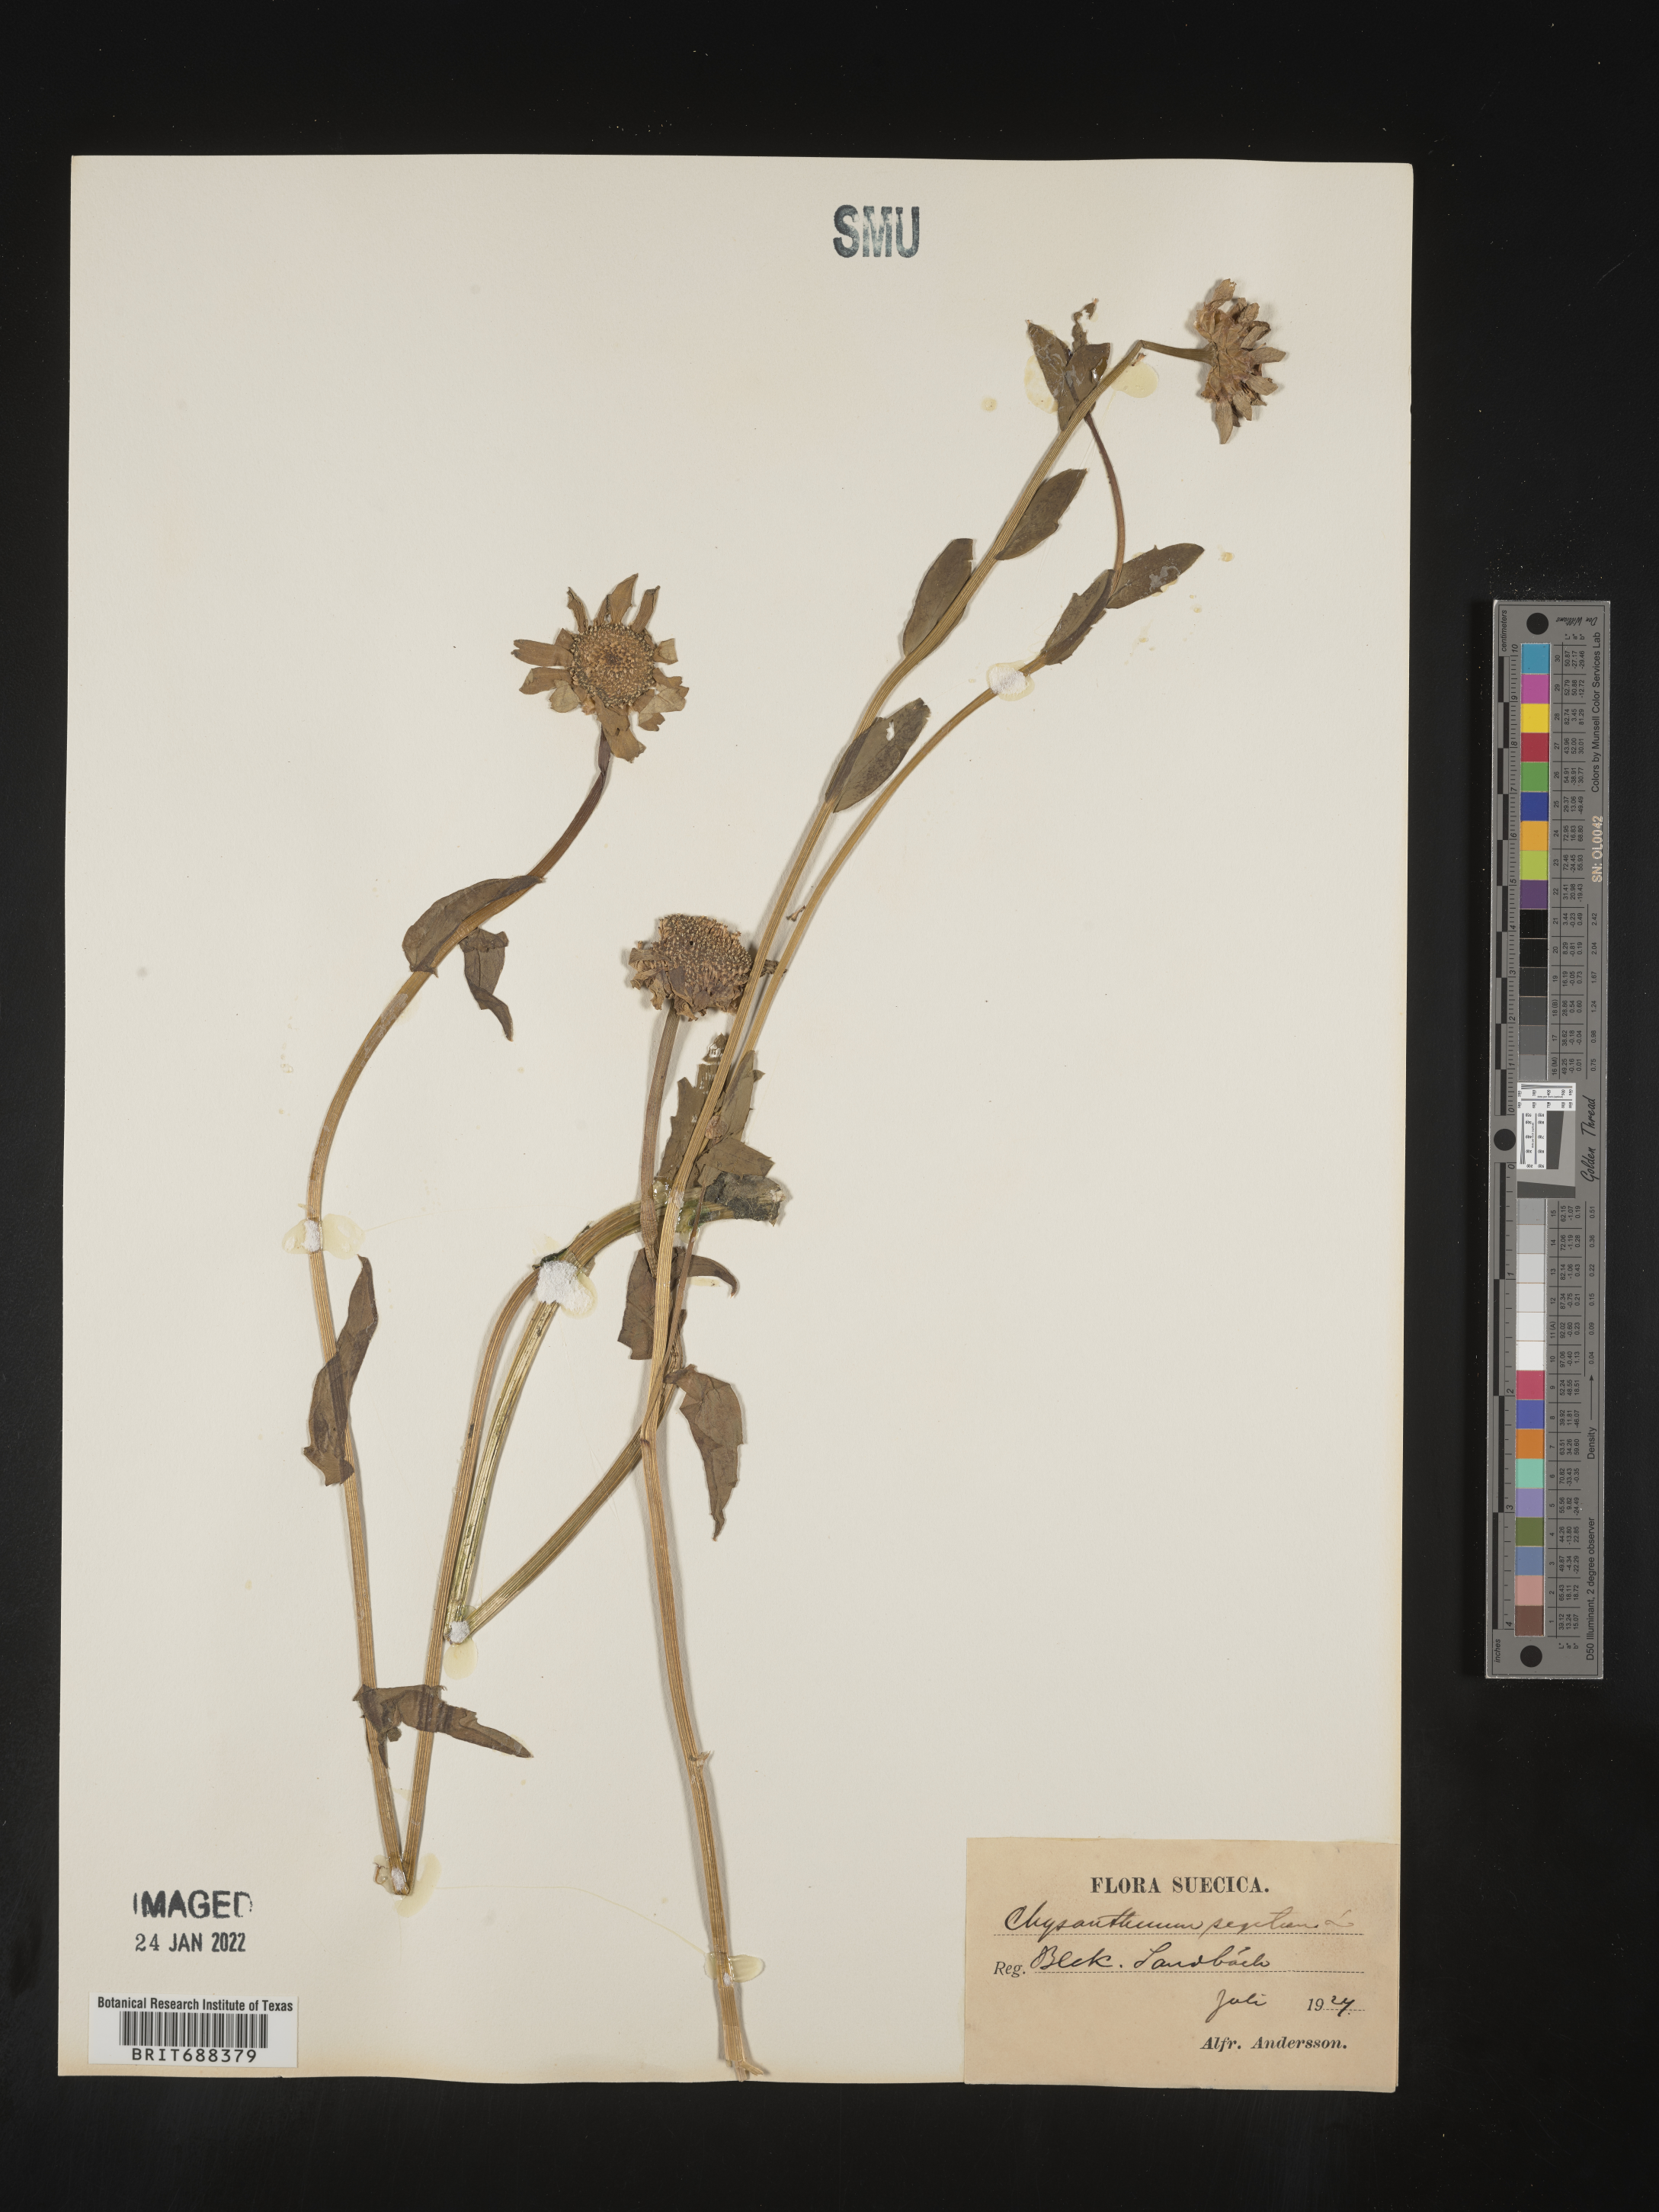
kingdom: Plantae
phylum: Tracheophyta
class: Magnoliopsida
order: Asterales
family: Asteraceae
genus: Chrysanthemum
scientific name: Chrysanthemum
